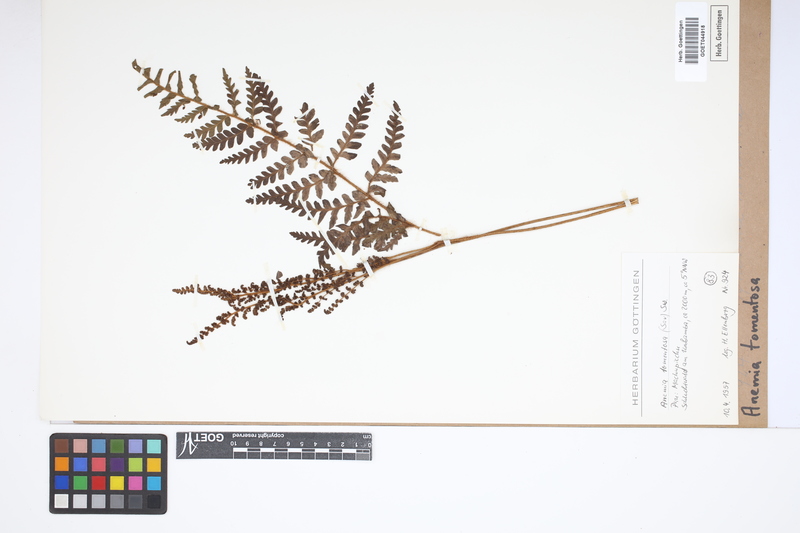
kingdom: Plantae
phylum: Tracheophyta
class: Polypodiopsida
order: Schizaeales
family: Anemiaceae
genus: Anemia
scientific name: Anemia tomentosa
